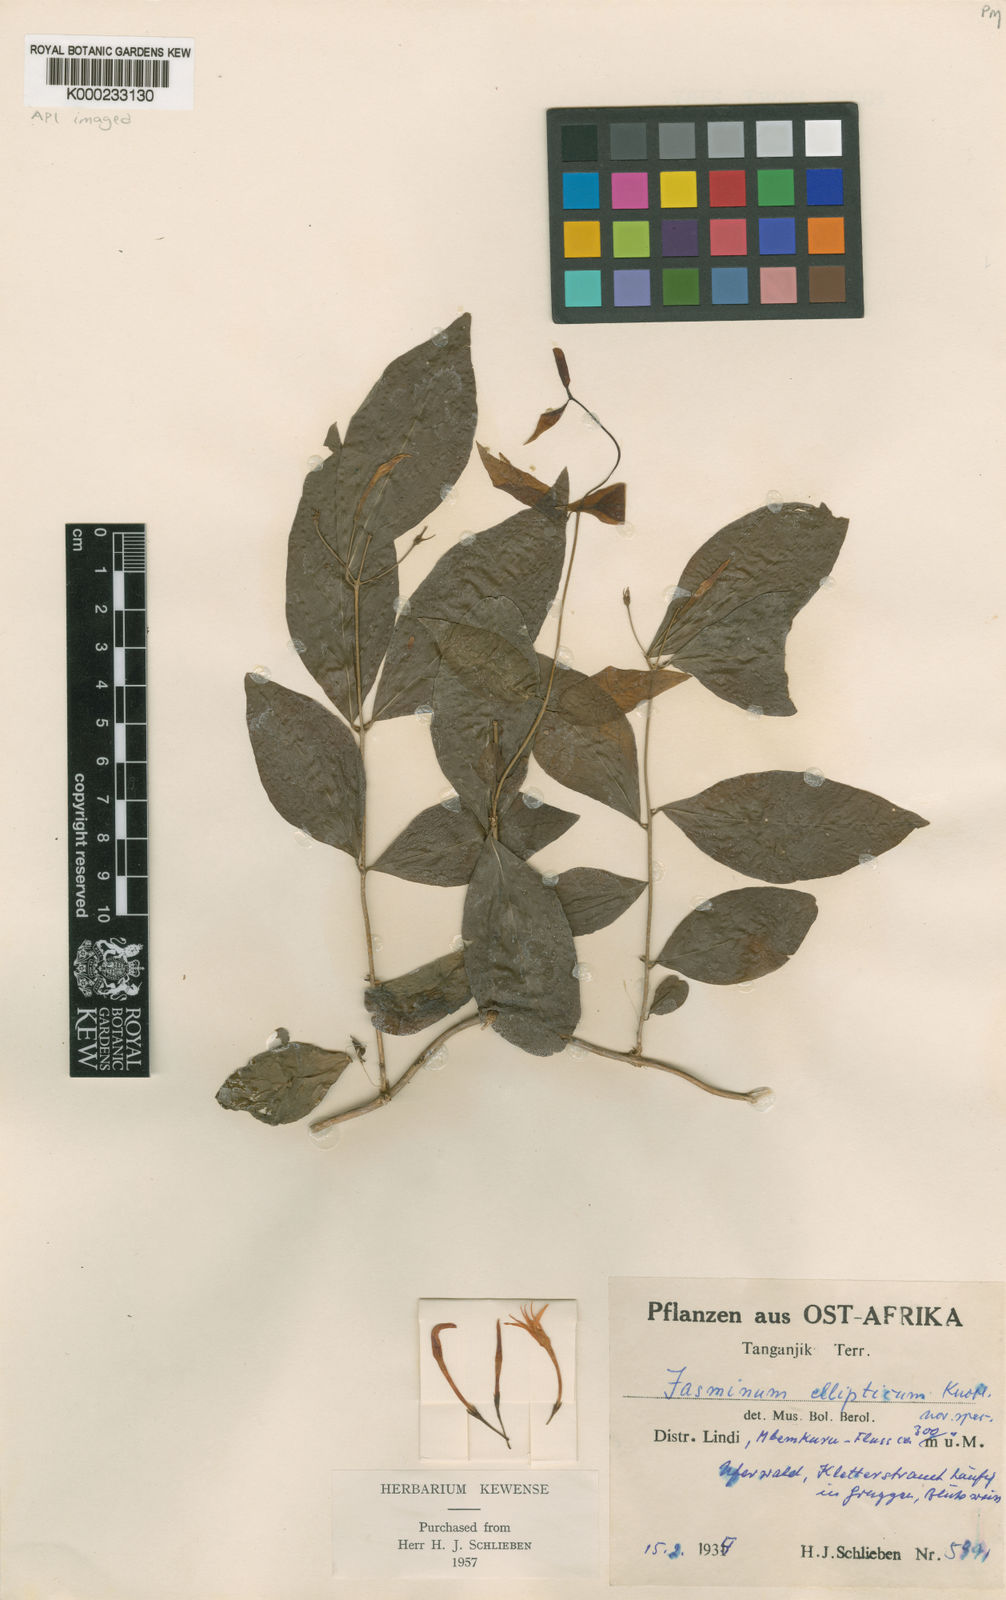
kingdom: Plantae
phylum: Tracheophyta
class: Magnoliopsida
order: Lamiales
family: Oleaceae
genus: Jasminum
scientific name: Jasminum streptopus
